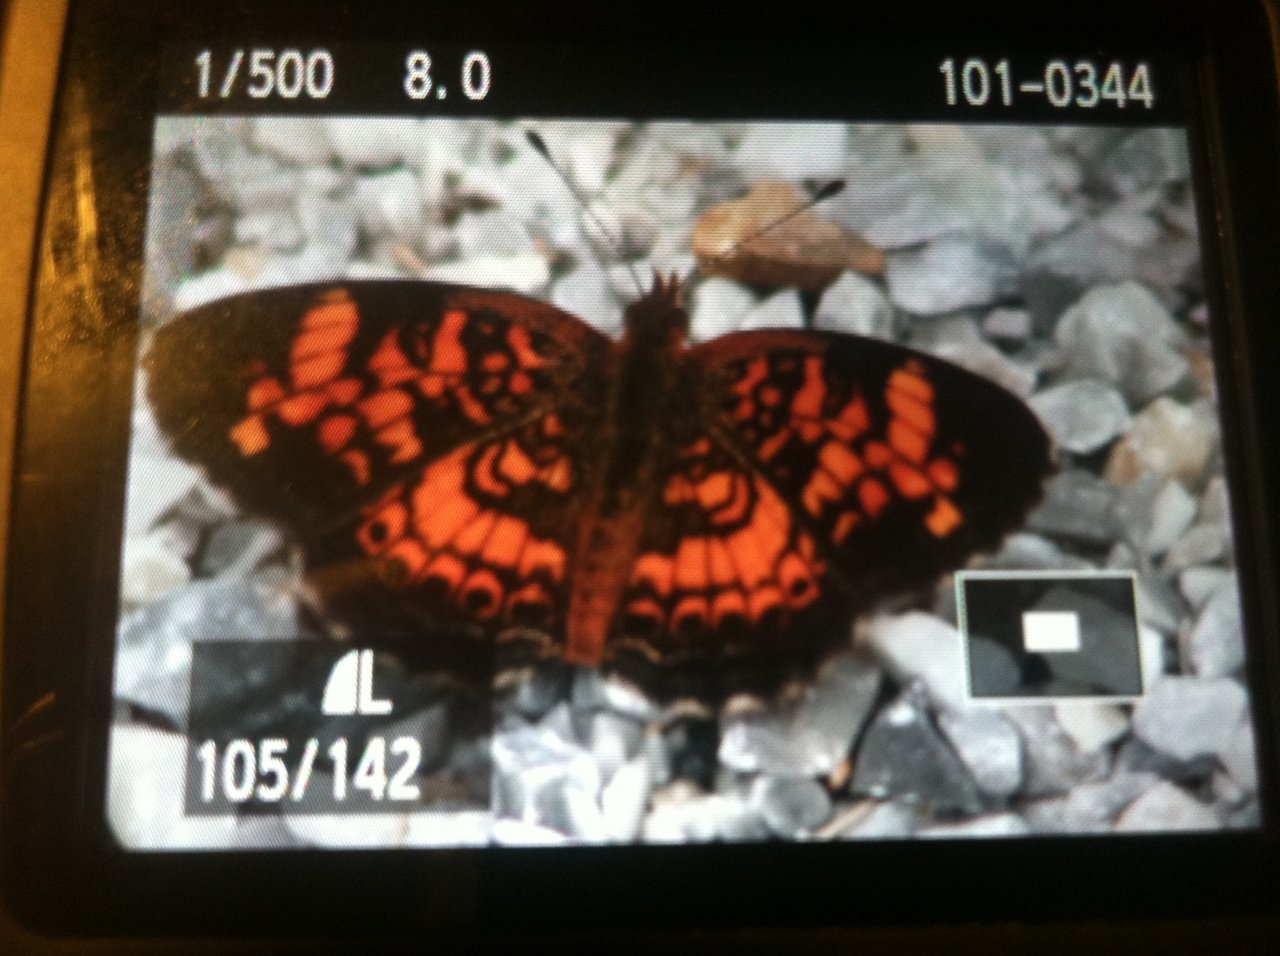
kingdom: Animalia
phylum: Arthropoda
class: Insecta
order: Lepidoptera
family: Nymphalidae
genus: Phyciodes
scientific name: Phyciodes
